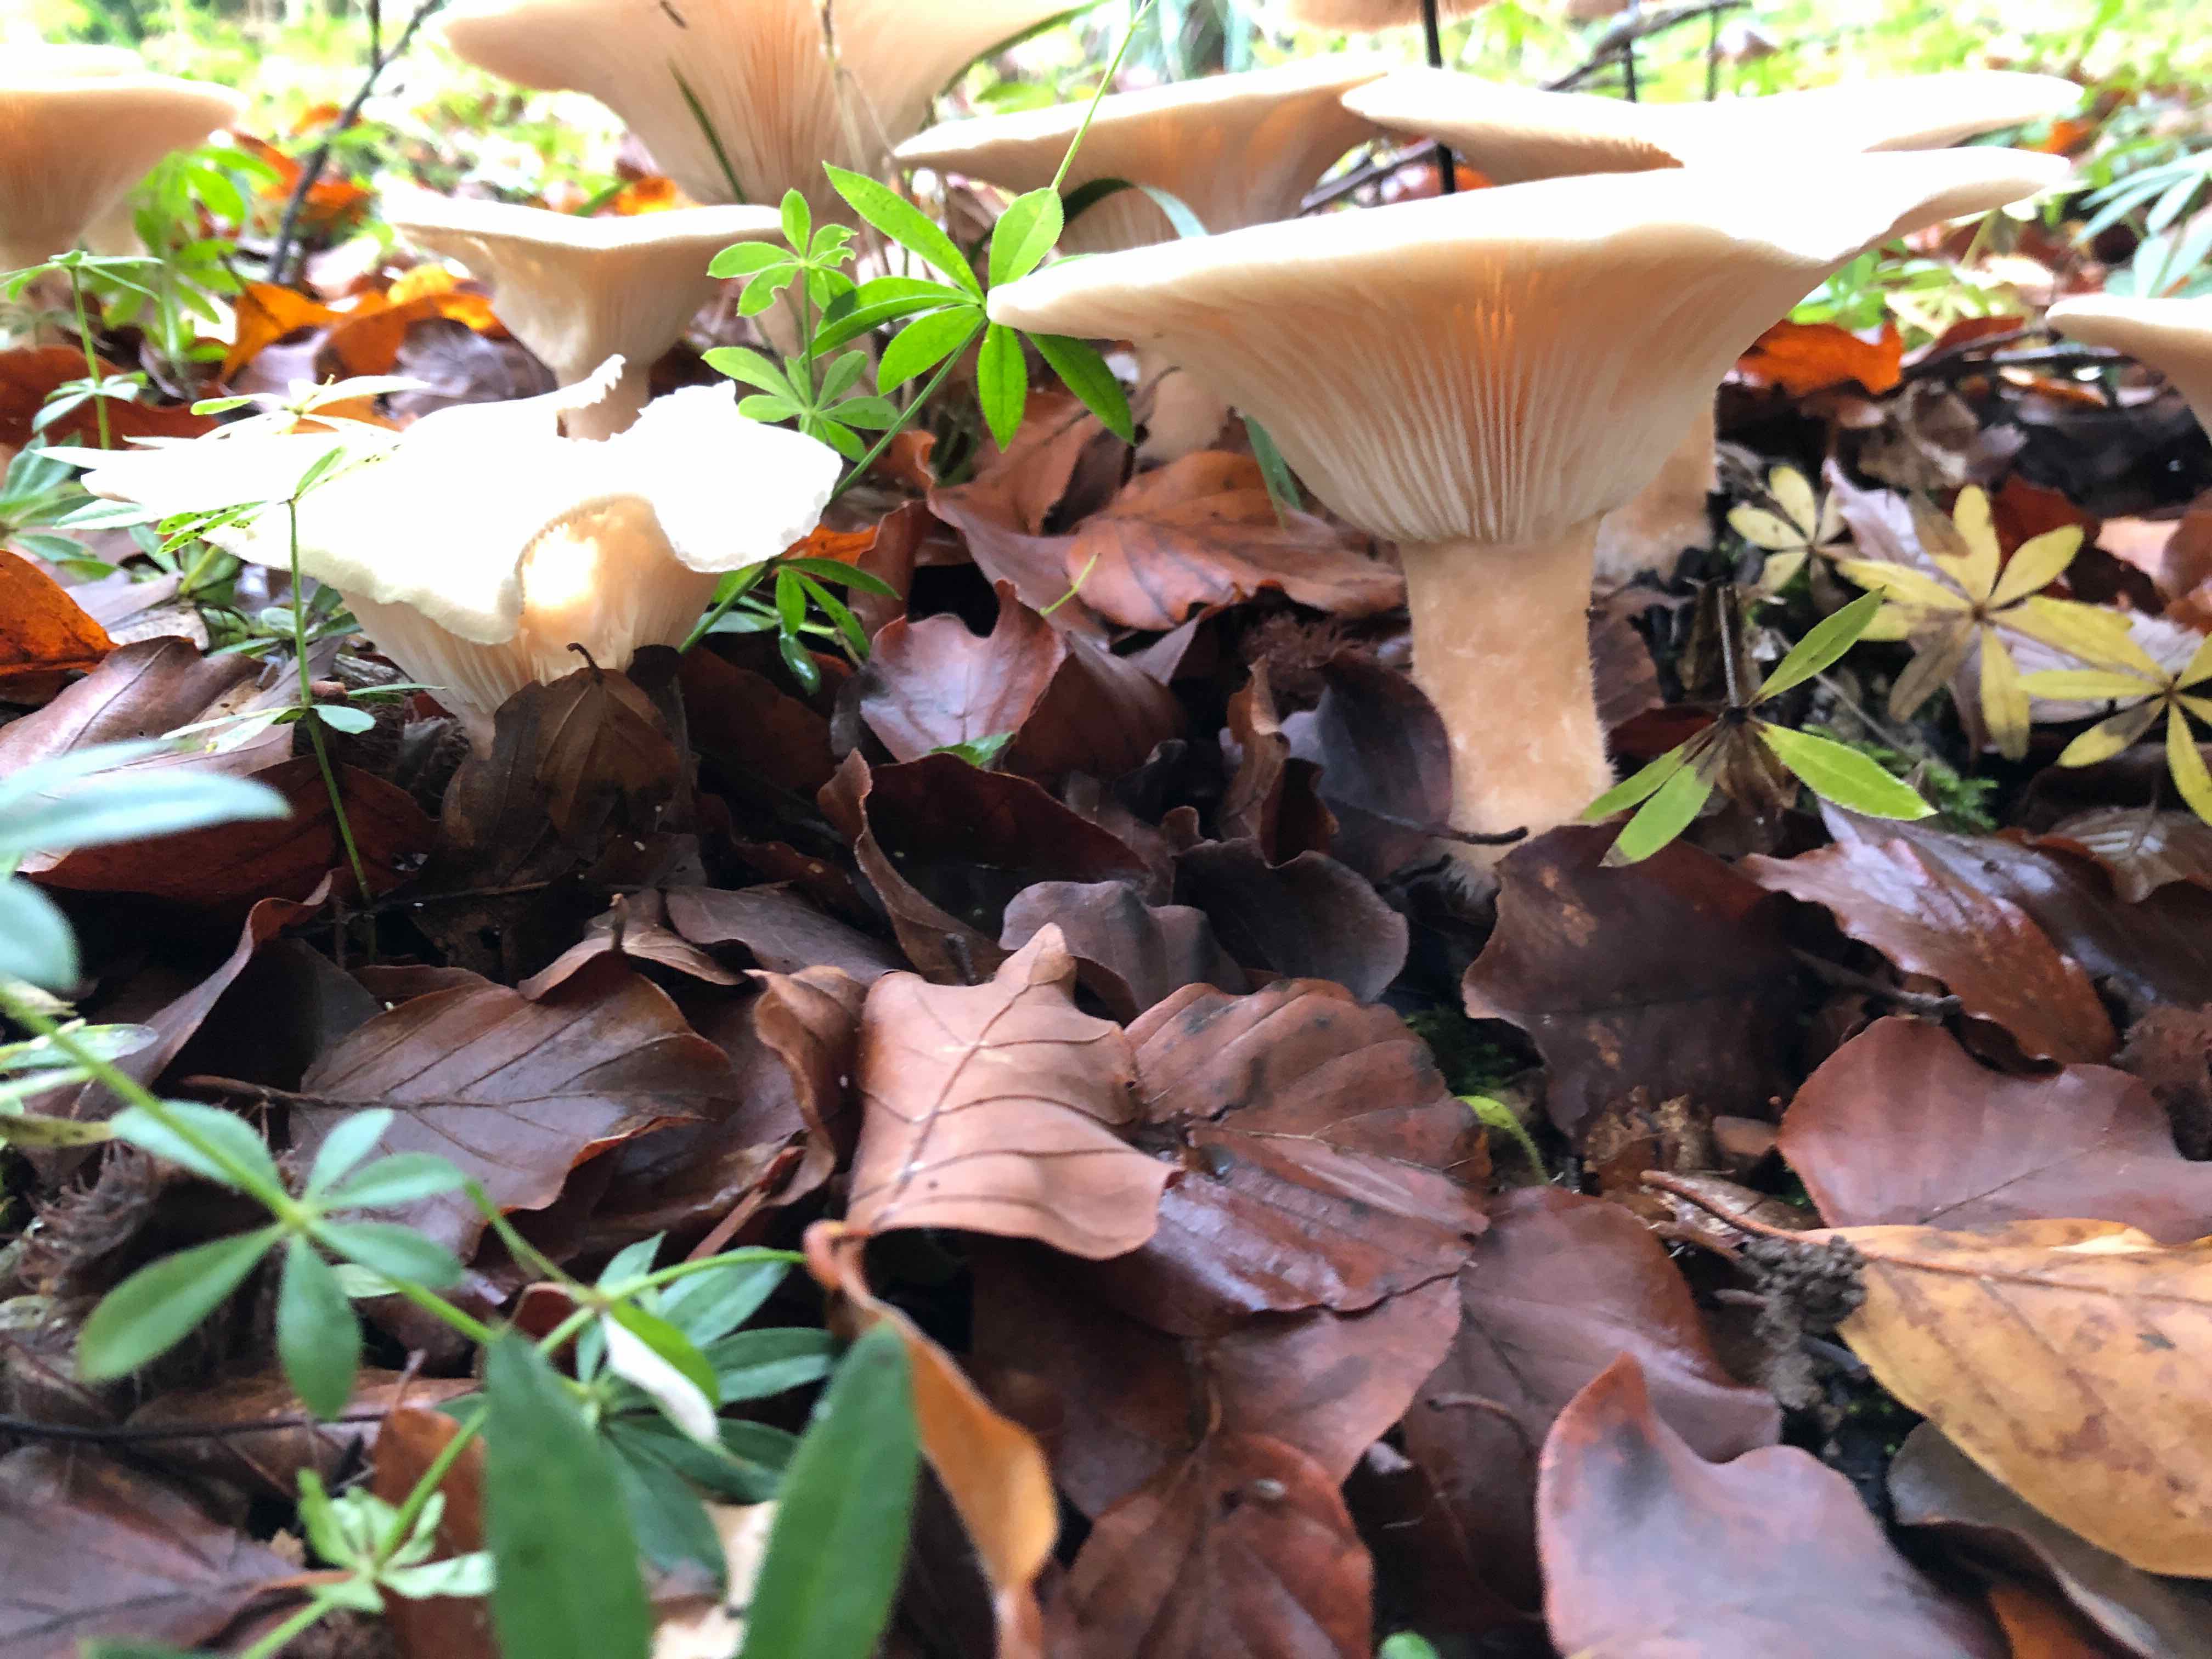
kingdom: Fungi
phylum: Basidiomycota
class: Agaricomycetes
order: Agaricales
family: Tricholomataceae
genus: Infundibulicybe
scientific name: Infundibulicybe geotropa
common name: stor tragthat
